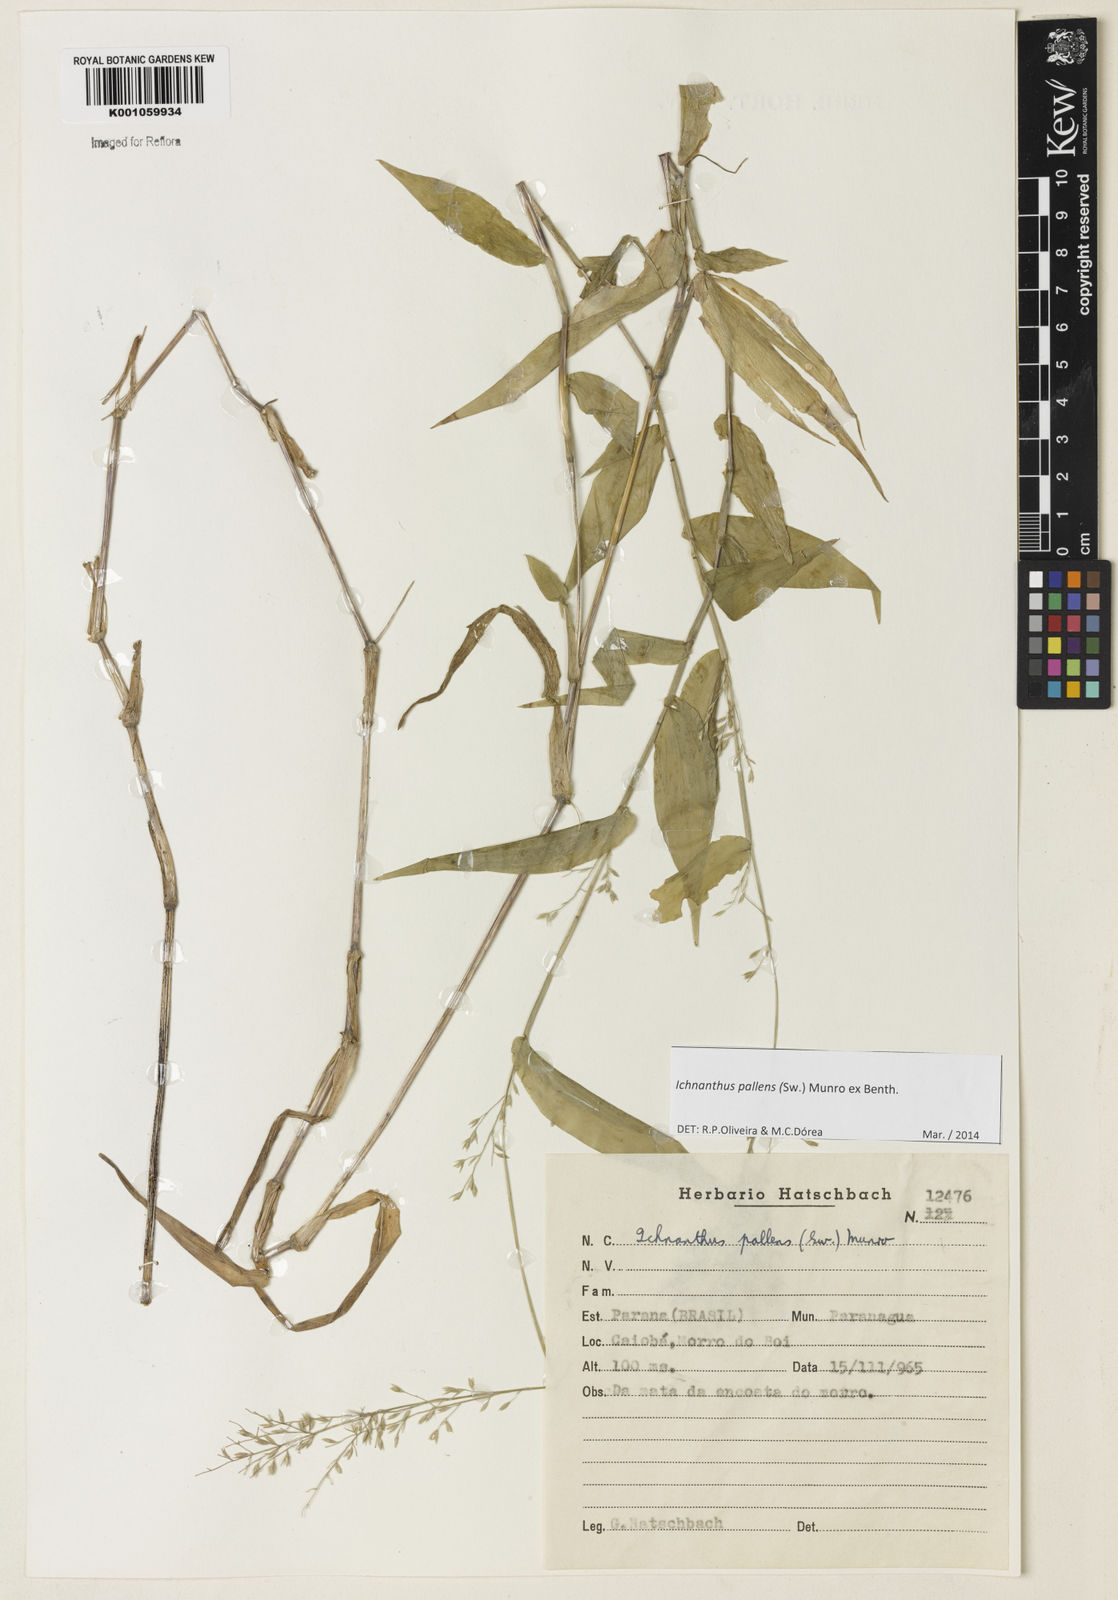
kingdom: Plantae
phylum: Tracheophyta
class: Liliopsida
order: Poales
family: Poaceae
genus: Ichnanthus
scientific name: Ichnanthus pallens
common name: Water grass
